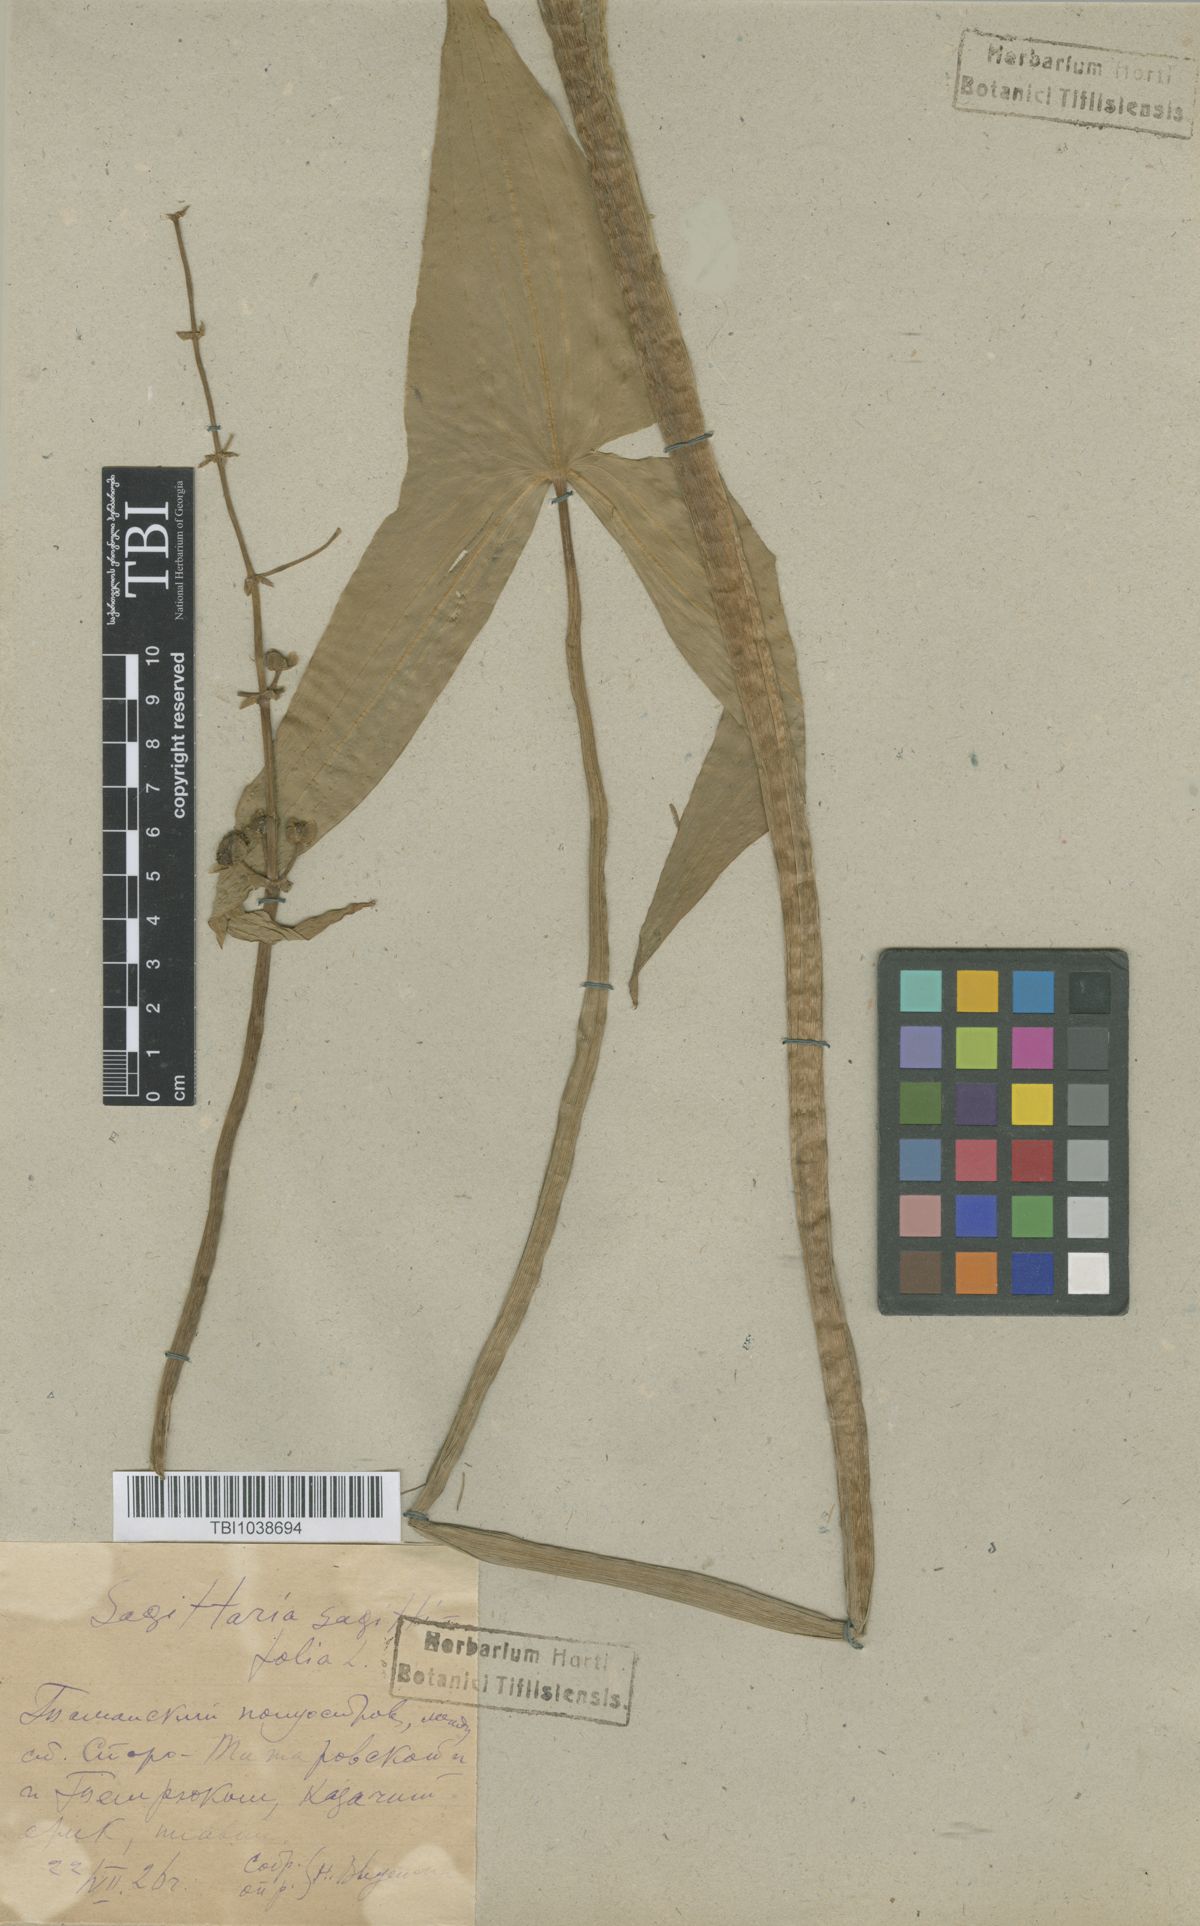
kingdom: Plantae
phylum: Tracheophyta
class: Liliopsida
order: Alismatales
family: Alismataceae
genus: Sagittaria
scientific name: Sagittaria sagittifolia
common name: Arrowhead
